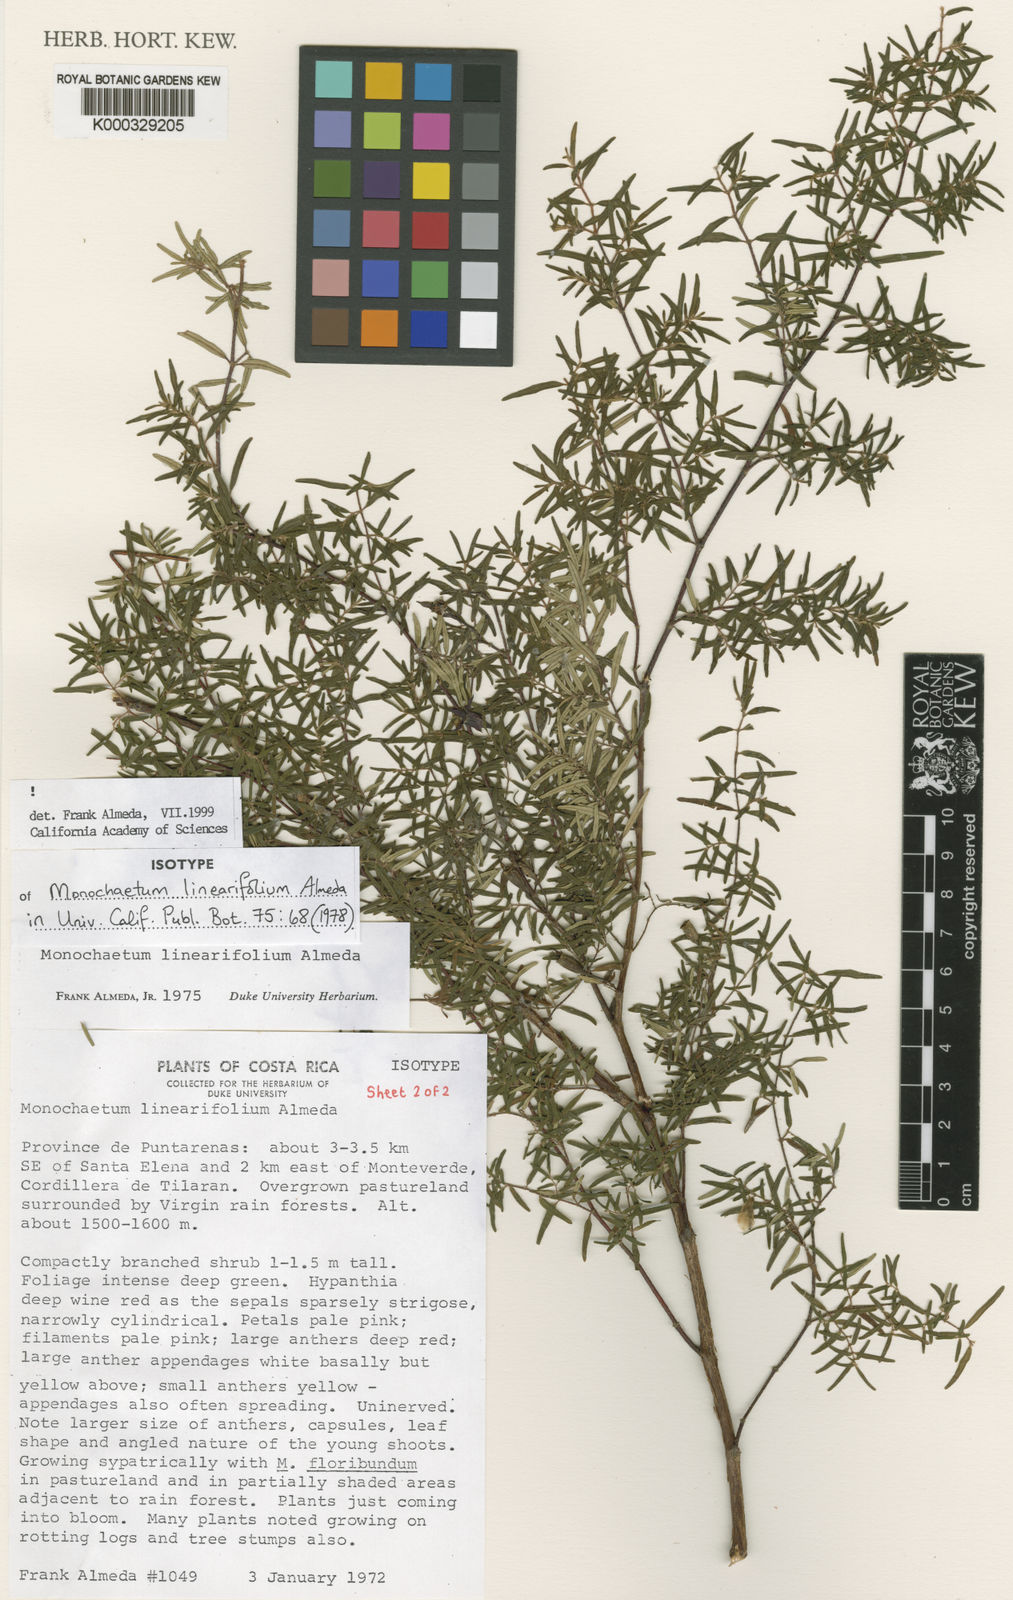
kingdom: Plantae
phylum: Tracheophyta
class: Magnoliopsida
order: Myrtales
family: Melastomataceae
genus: Monochaetum
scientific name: Monochaetum linearifolium
